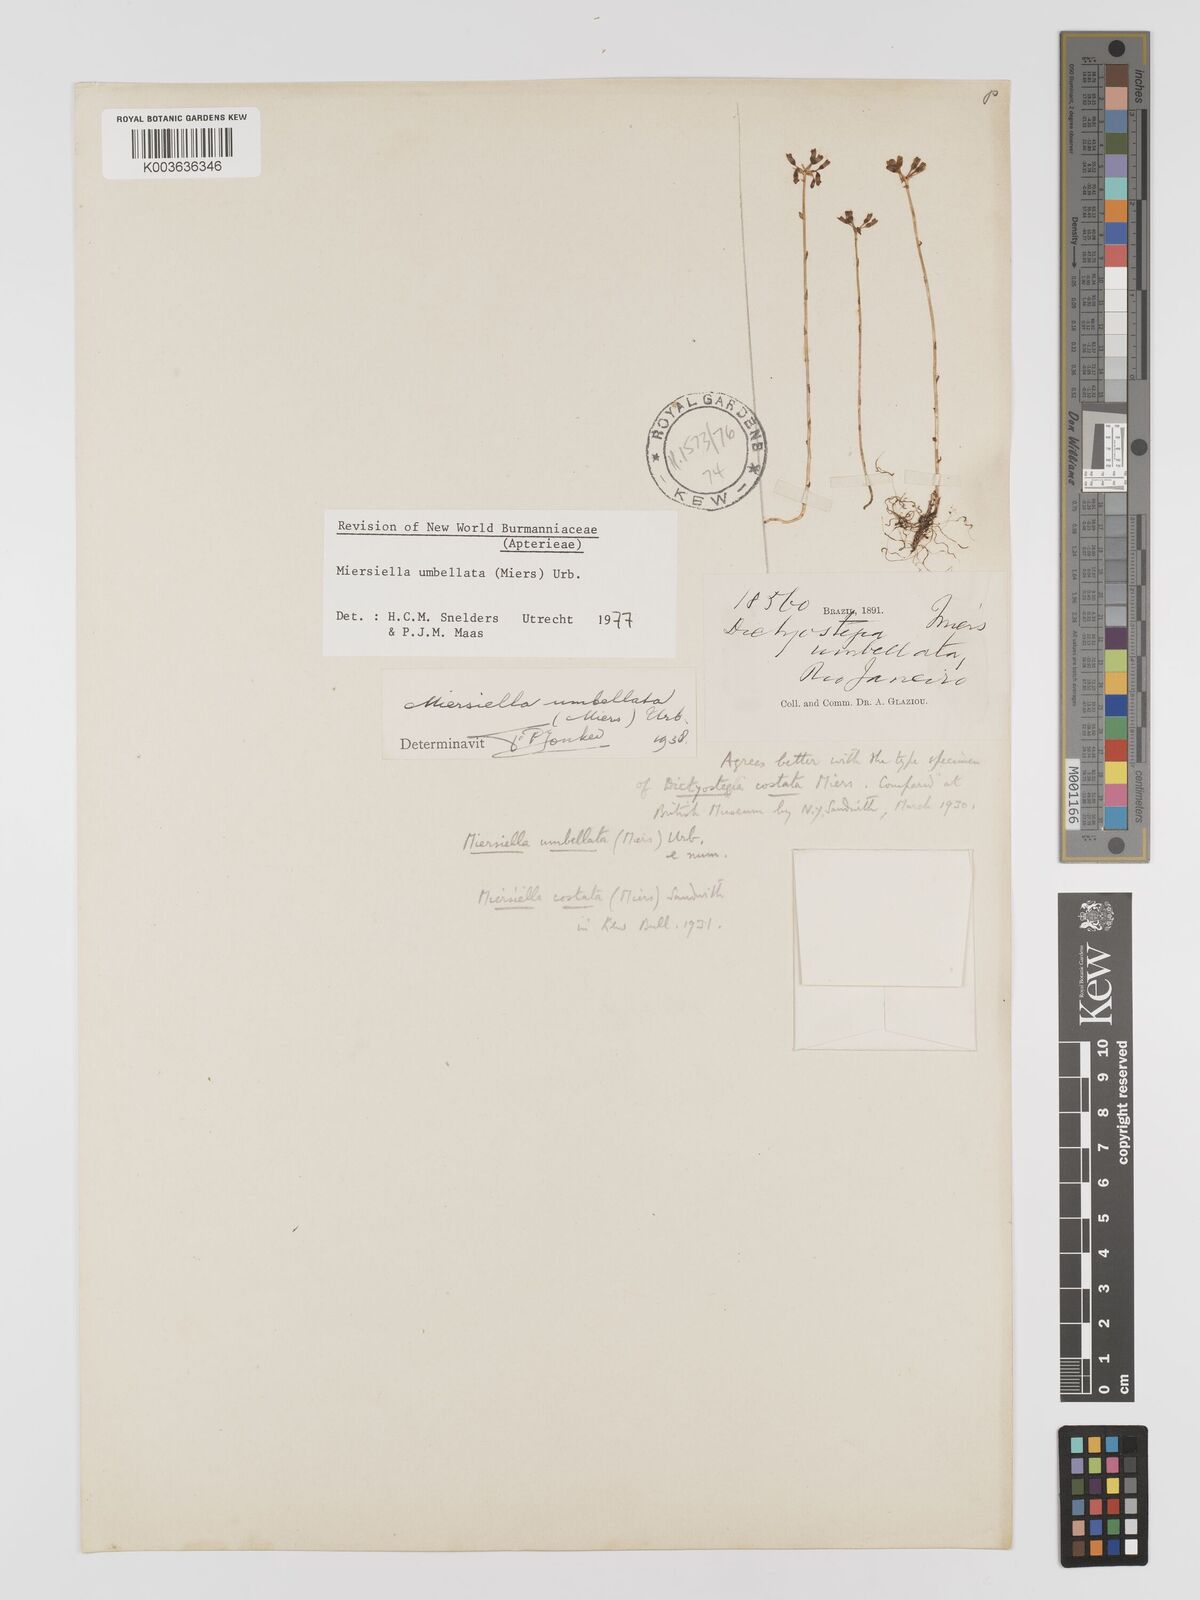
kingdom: Plantae
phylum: Tracheophyta
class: Liliopsida
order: Dioscoreales
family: Burmanniaceae
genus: Miersiella
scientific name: Miersiella umbellata
